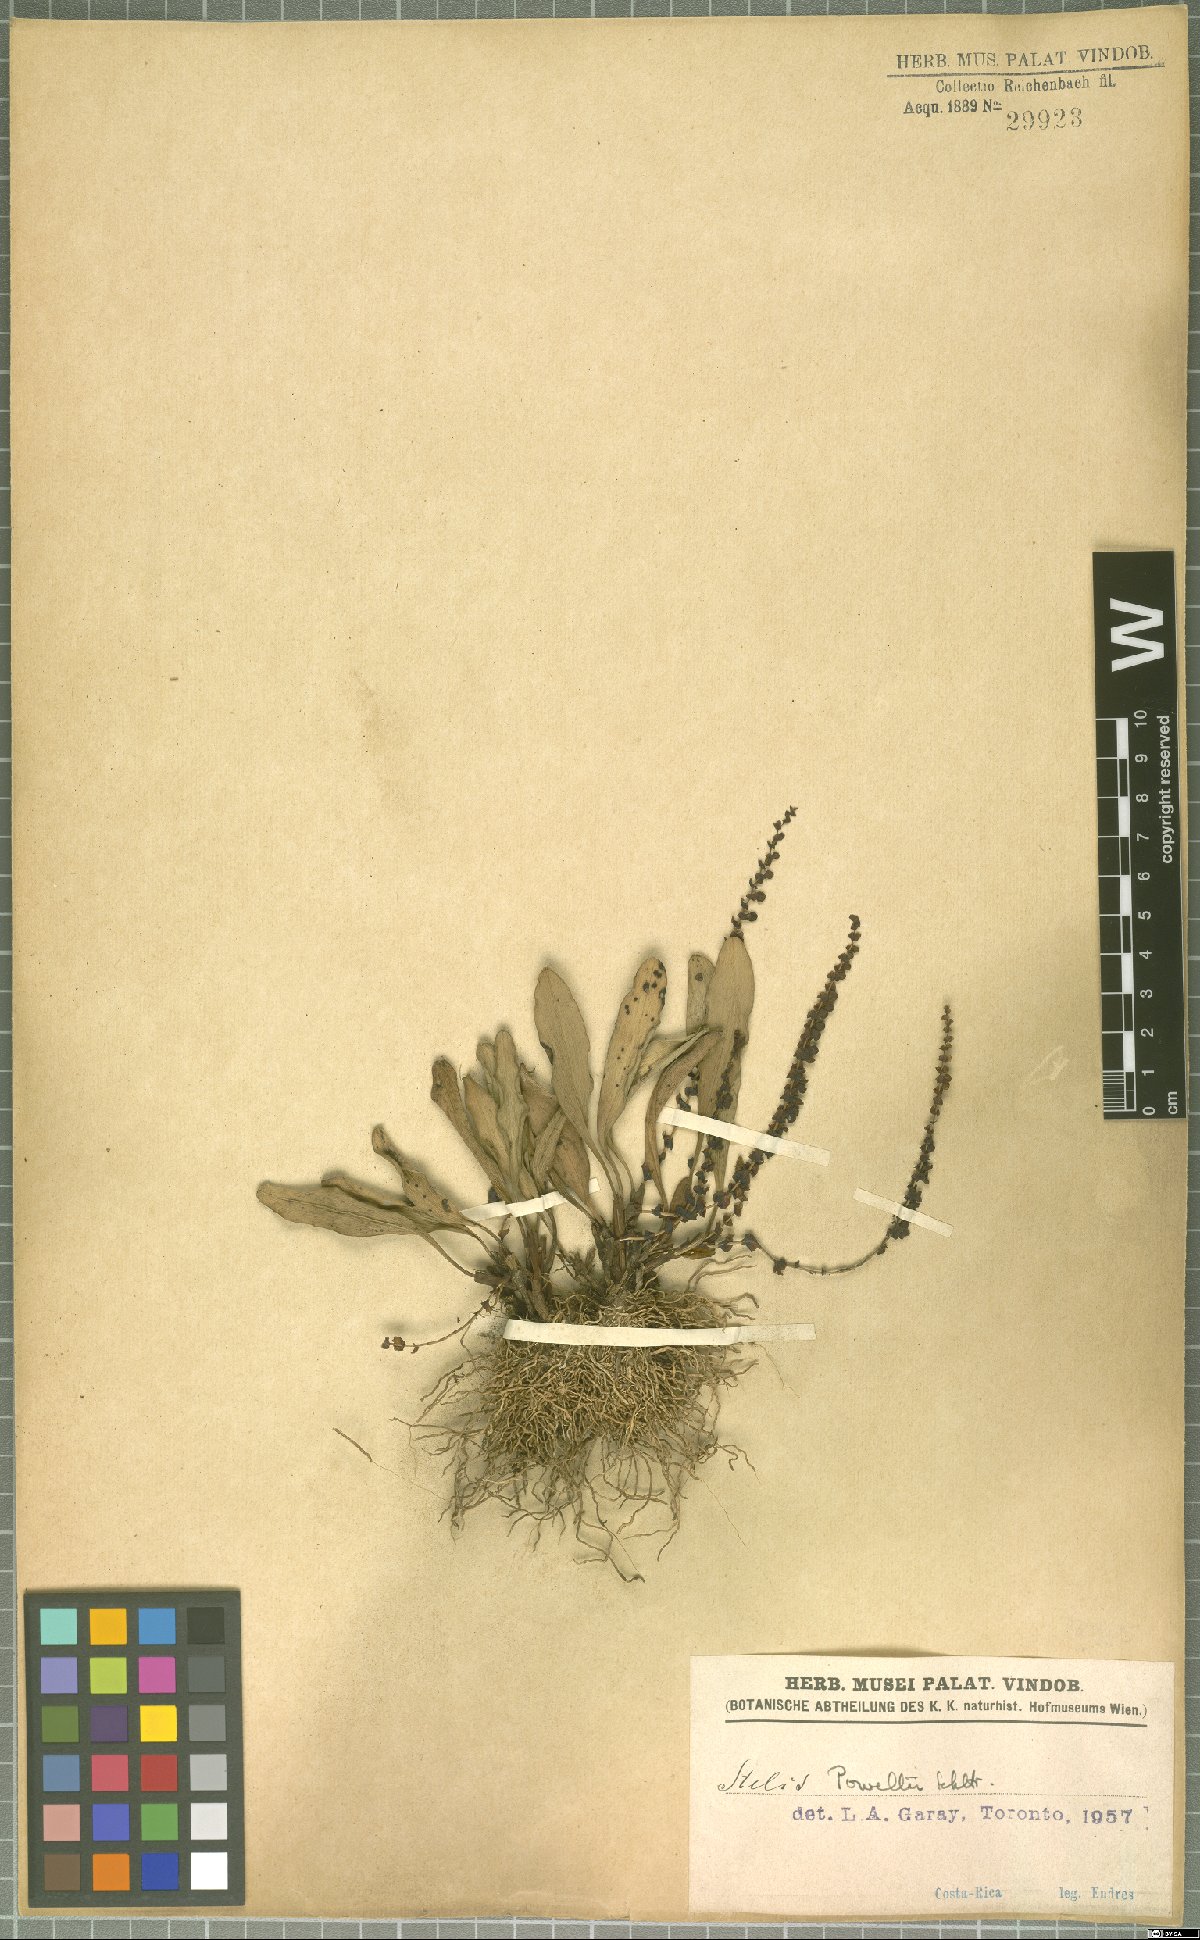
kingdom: Plantae
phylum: Tracheophyta
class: Liliopsida
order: Asparagales
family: Orchidaceae
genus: Stelis
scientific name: Stelis powellii
